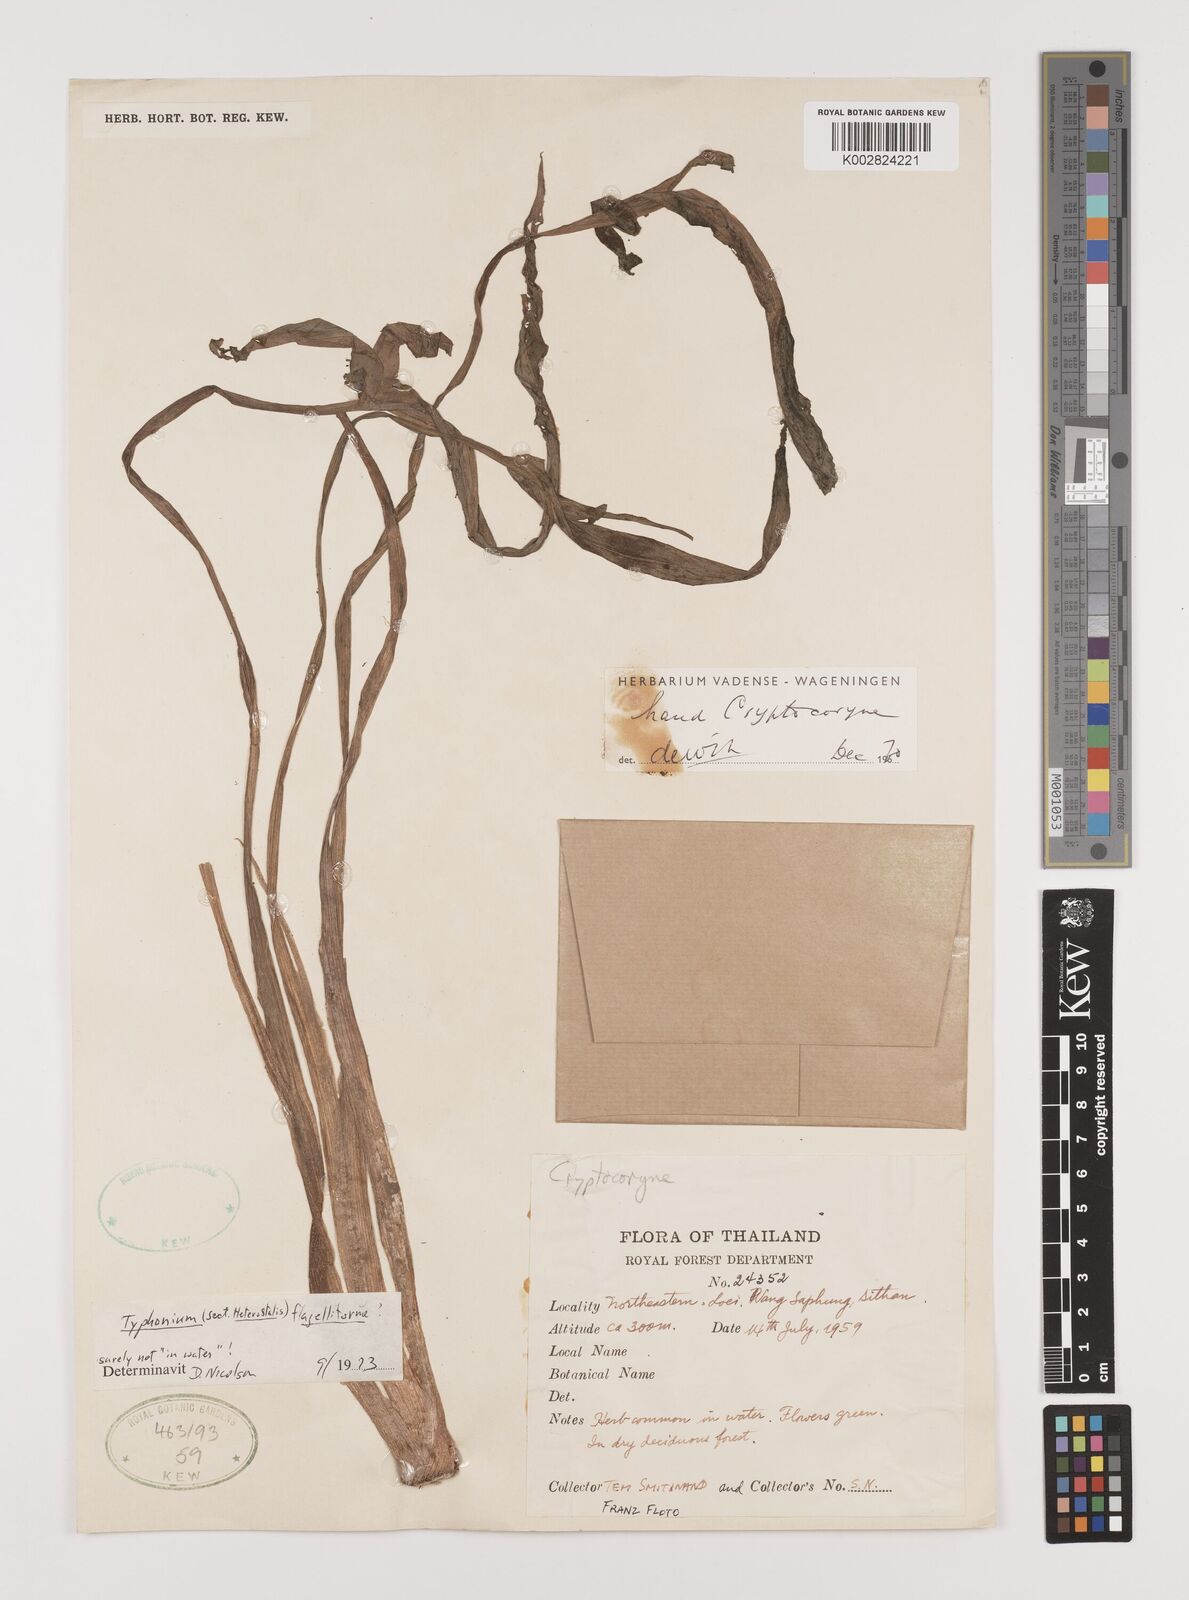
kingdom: Plantae
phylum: Tracheophyta
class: Liliopsida
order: Alismatales
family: Araceae
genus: Typhonium
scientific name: Typhonium flagelliforme
